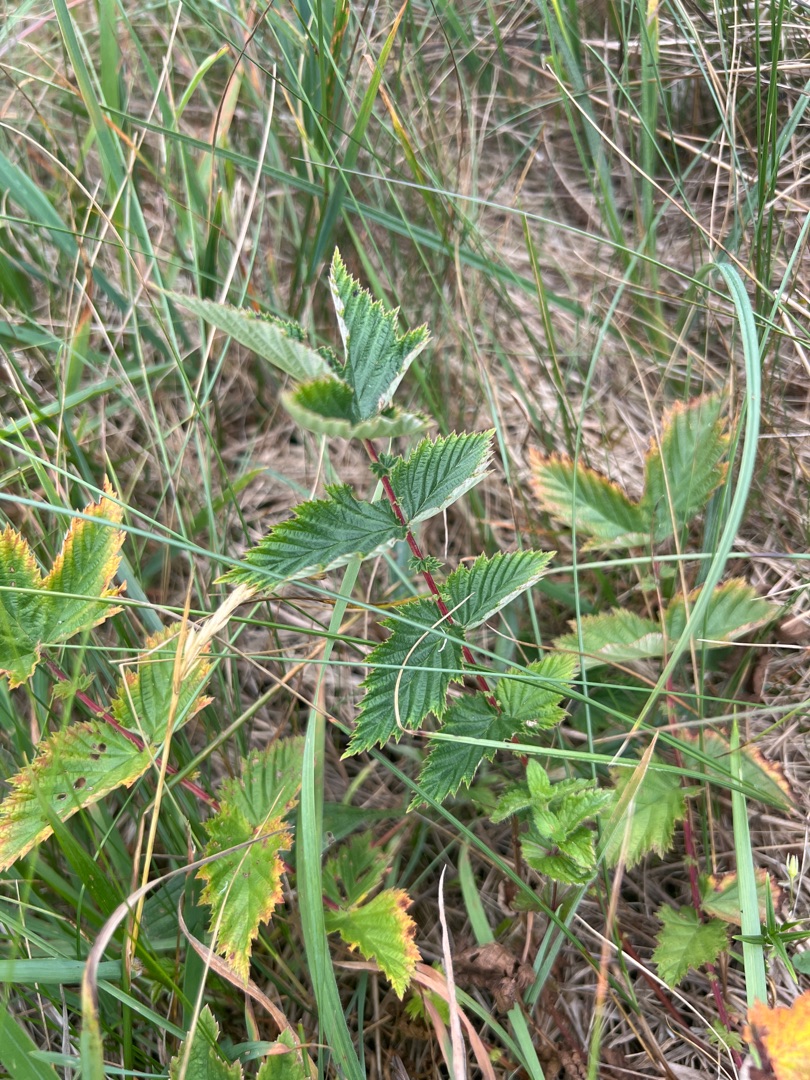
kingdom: Plantae
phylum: Tracheophyta
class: Magnoliopsida
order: Rosales
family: Rosaceae
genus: Filipendula
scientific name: Filipendula ulmaria
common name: Almindelig mjødurt
